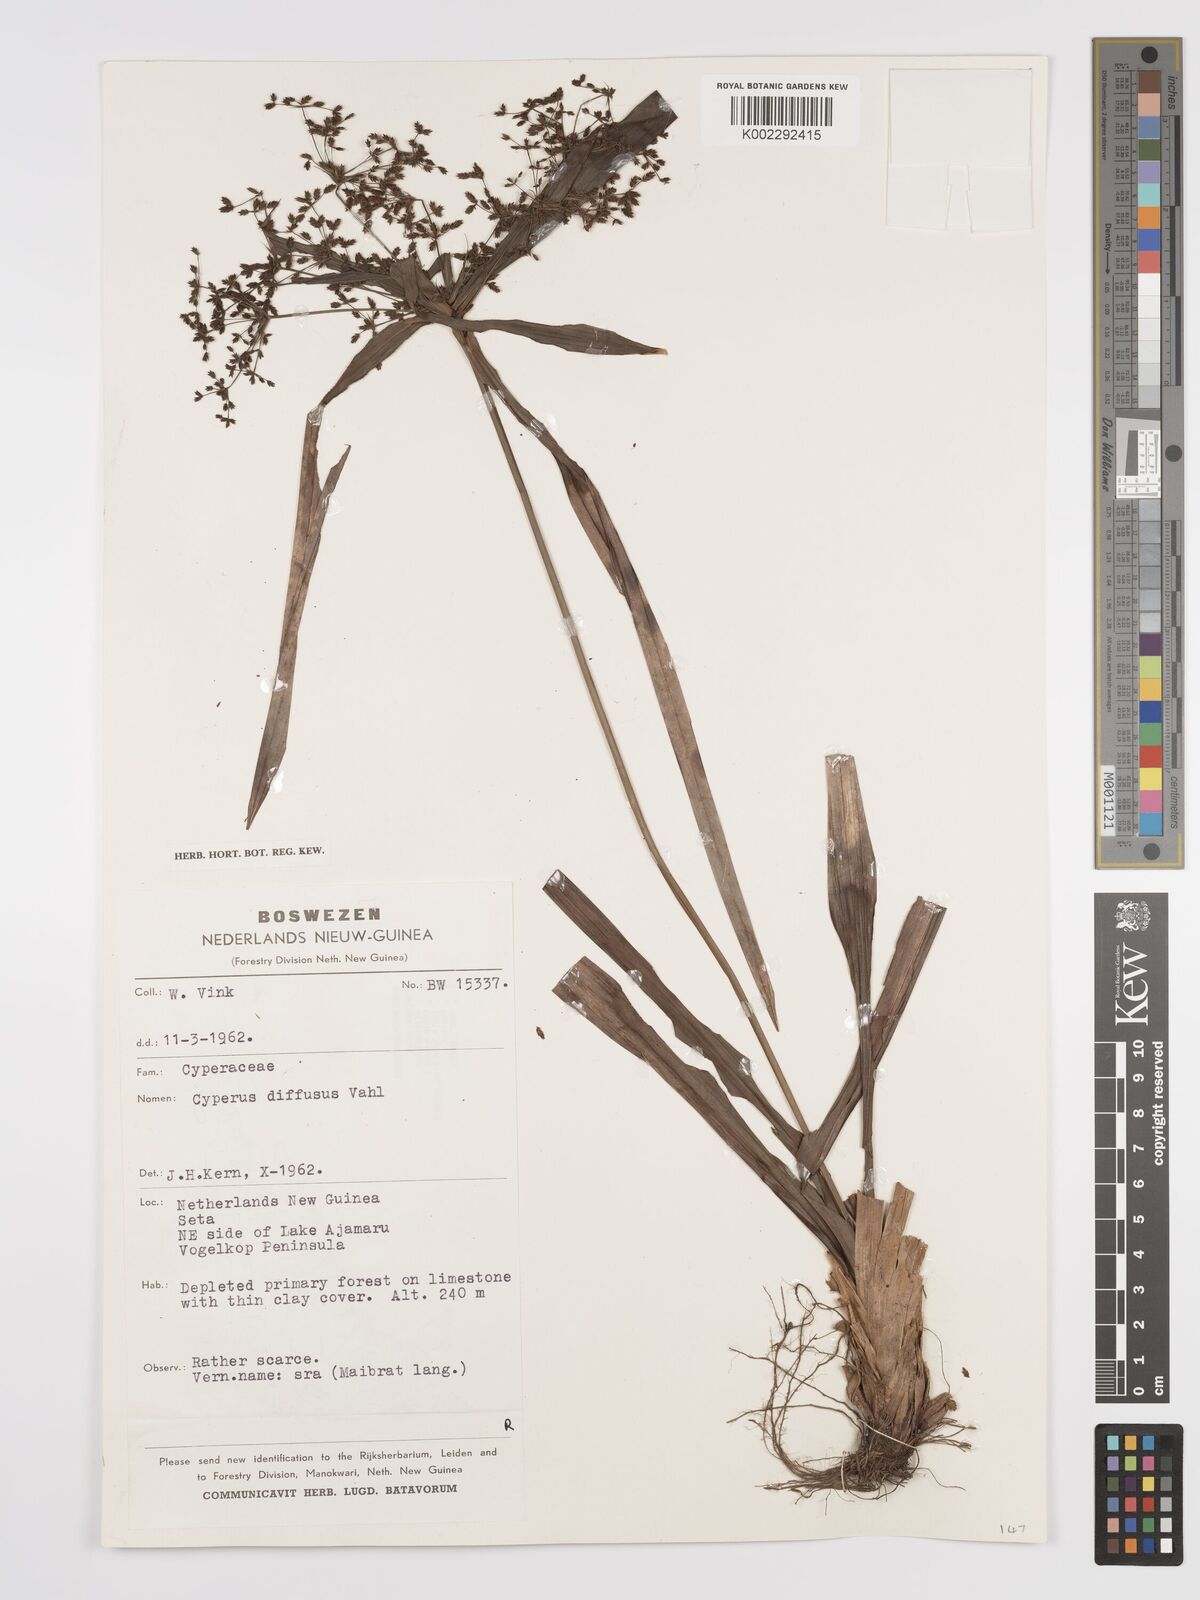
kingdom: Plantae
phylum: Tracheophyta
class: Liliopsida
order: Poales
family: Cyperaceae
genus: Cyperus
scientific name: Cyperus diffusus
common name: Dwarf umbrella grass
